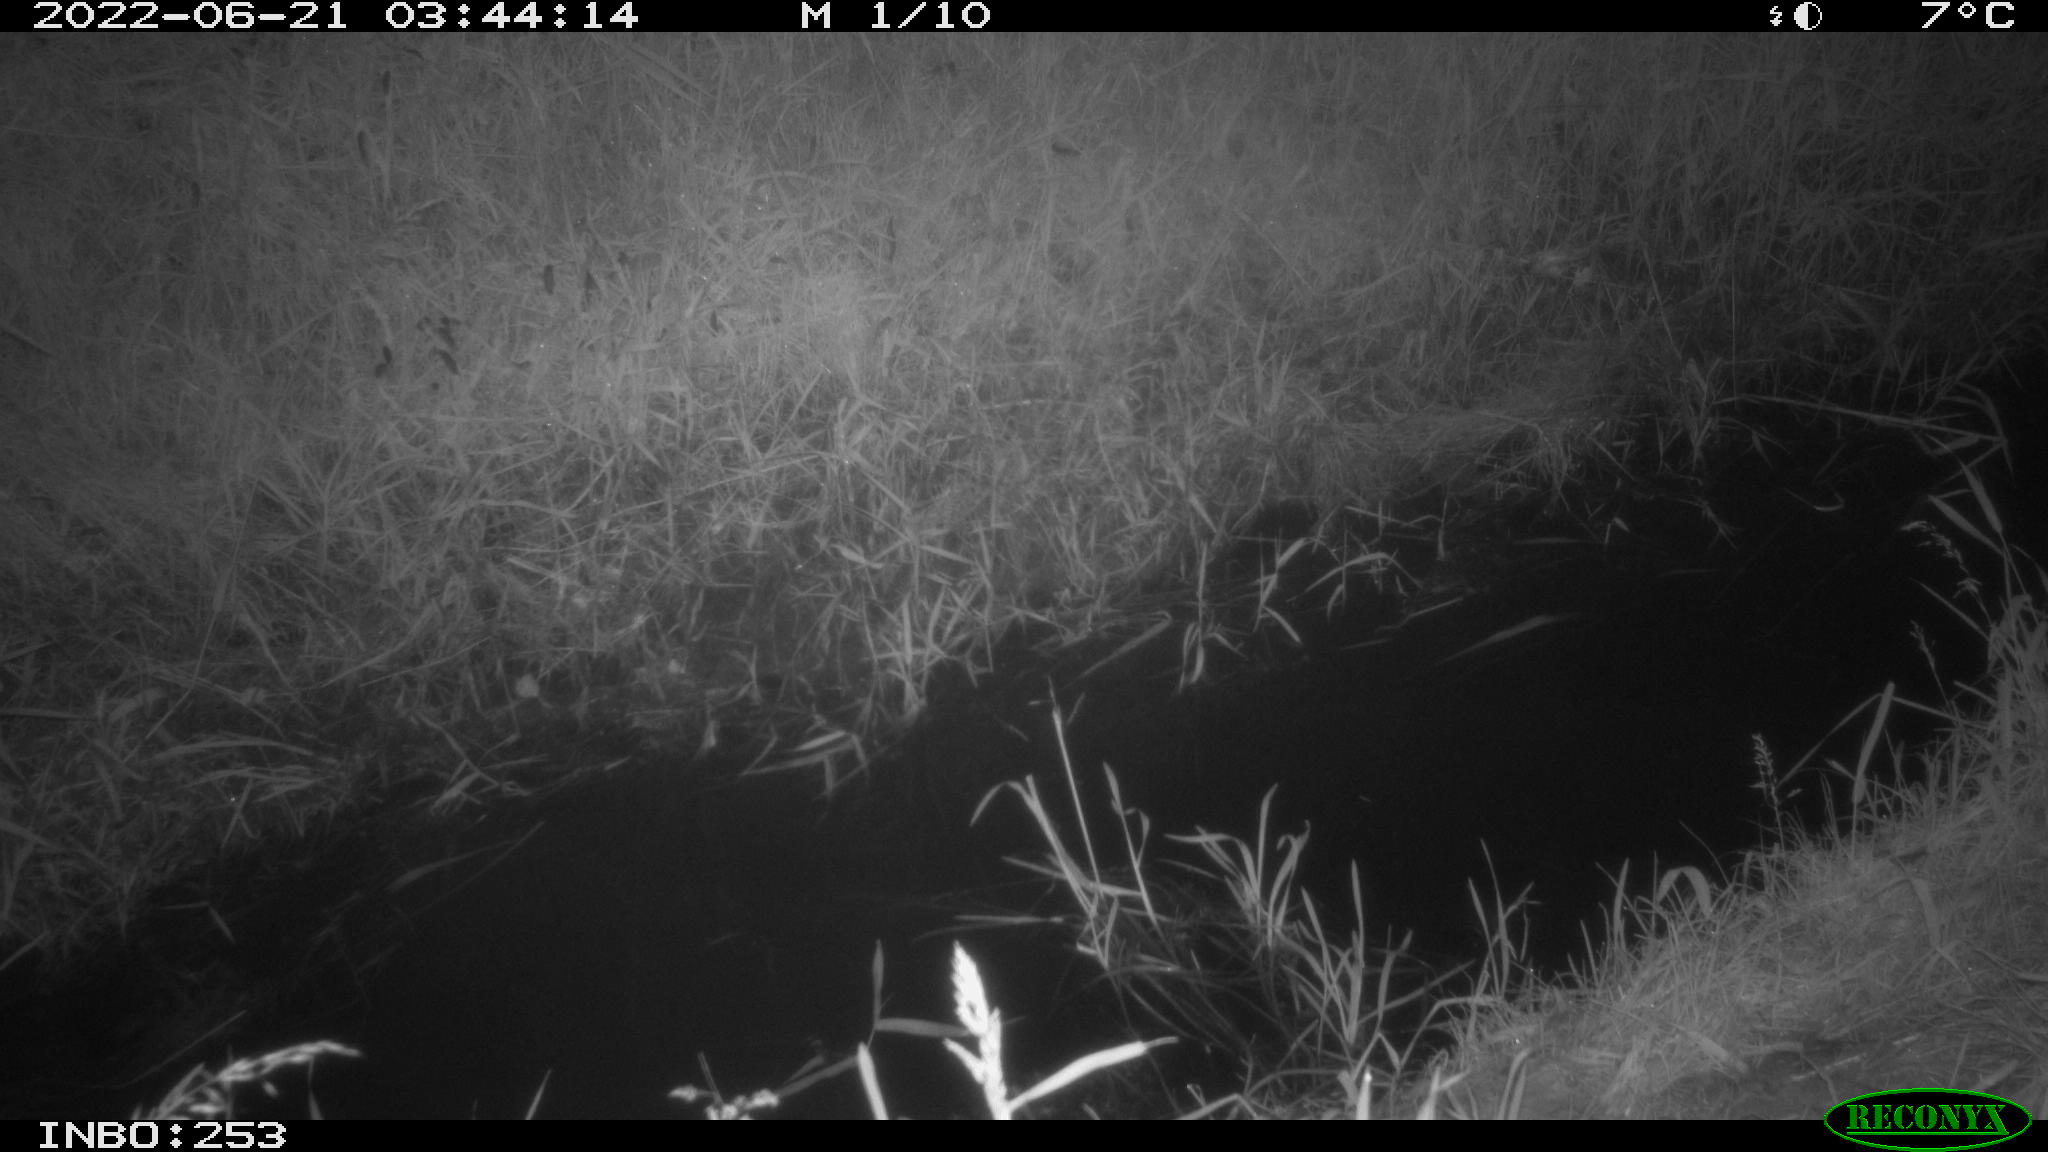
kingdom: Animalia
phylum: Chordata
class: Mammalia
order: Artiodactyla
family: Cervidae
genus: Capreolus
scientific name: Capreolus capreolus
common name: Western roe deer
